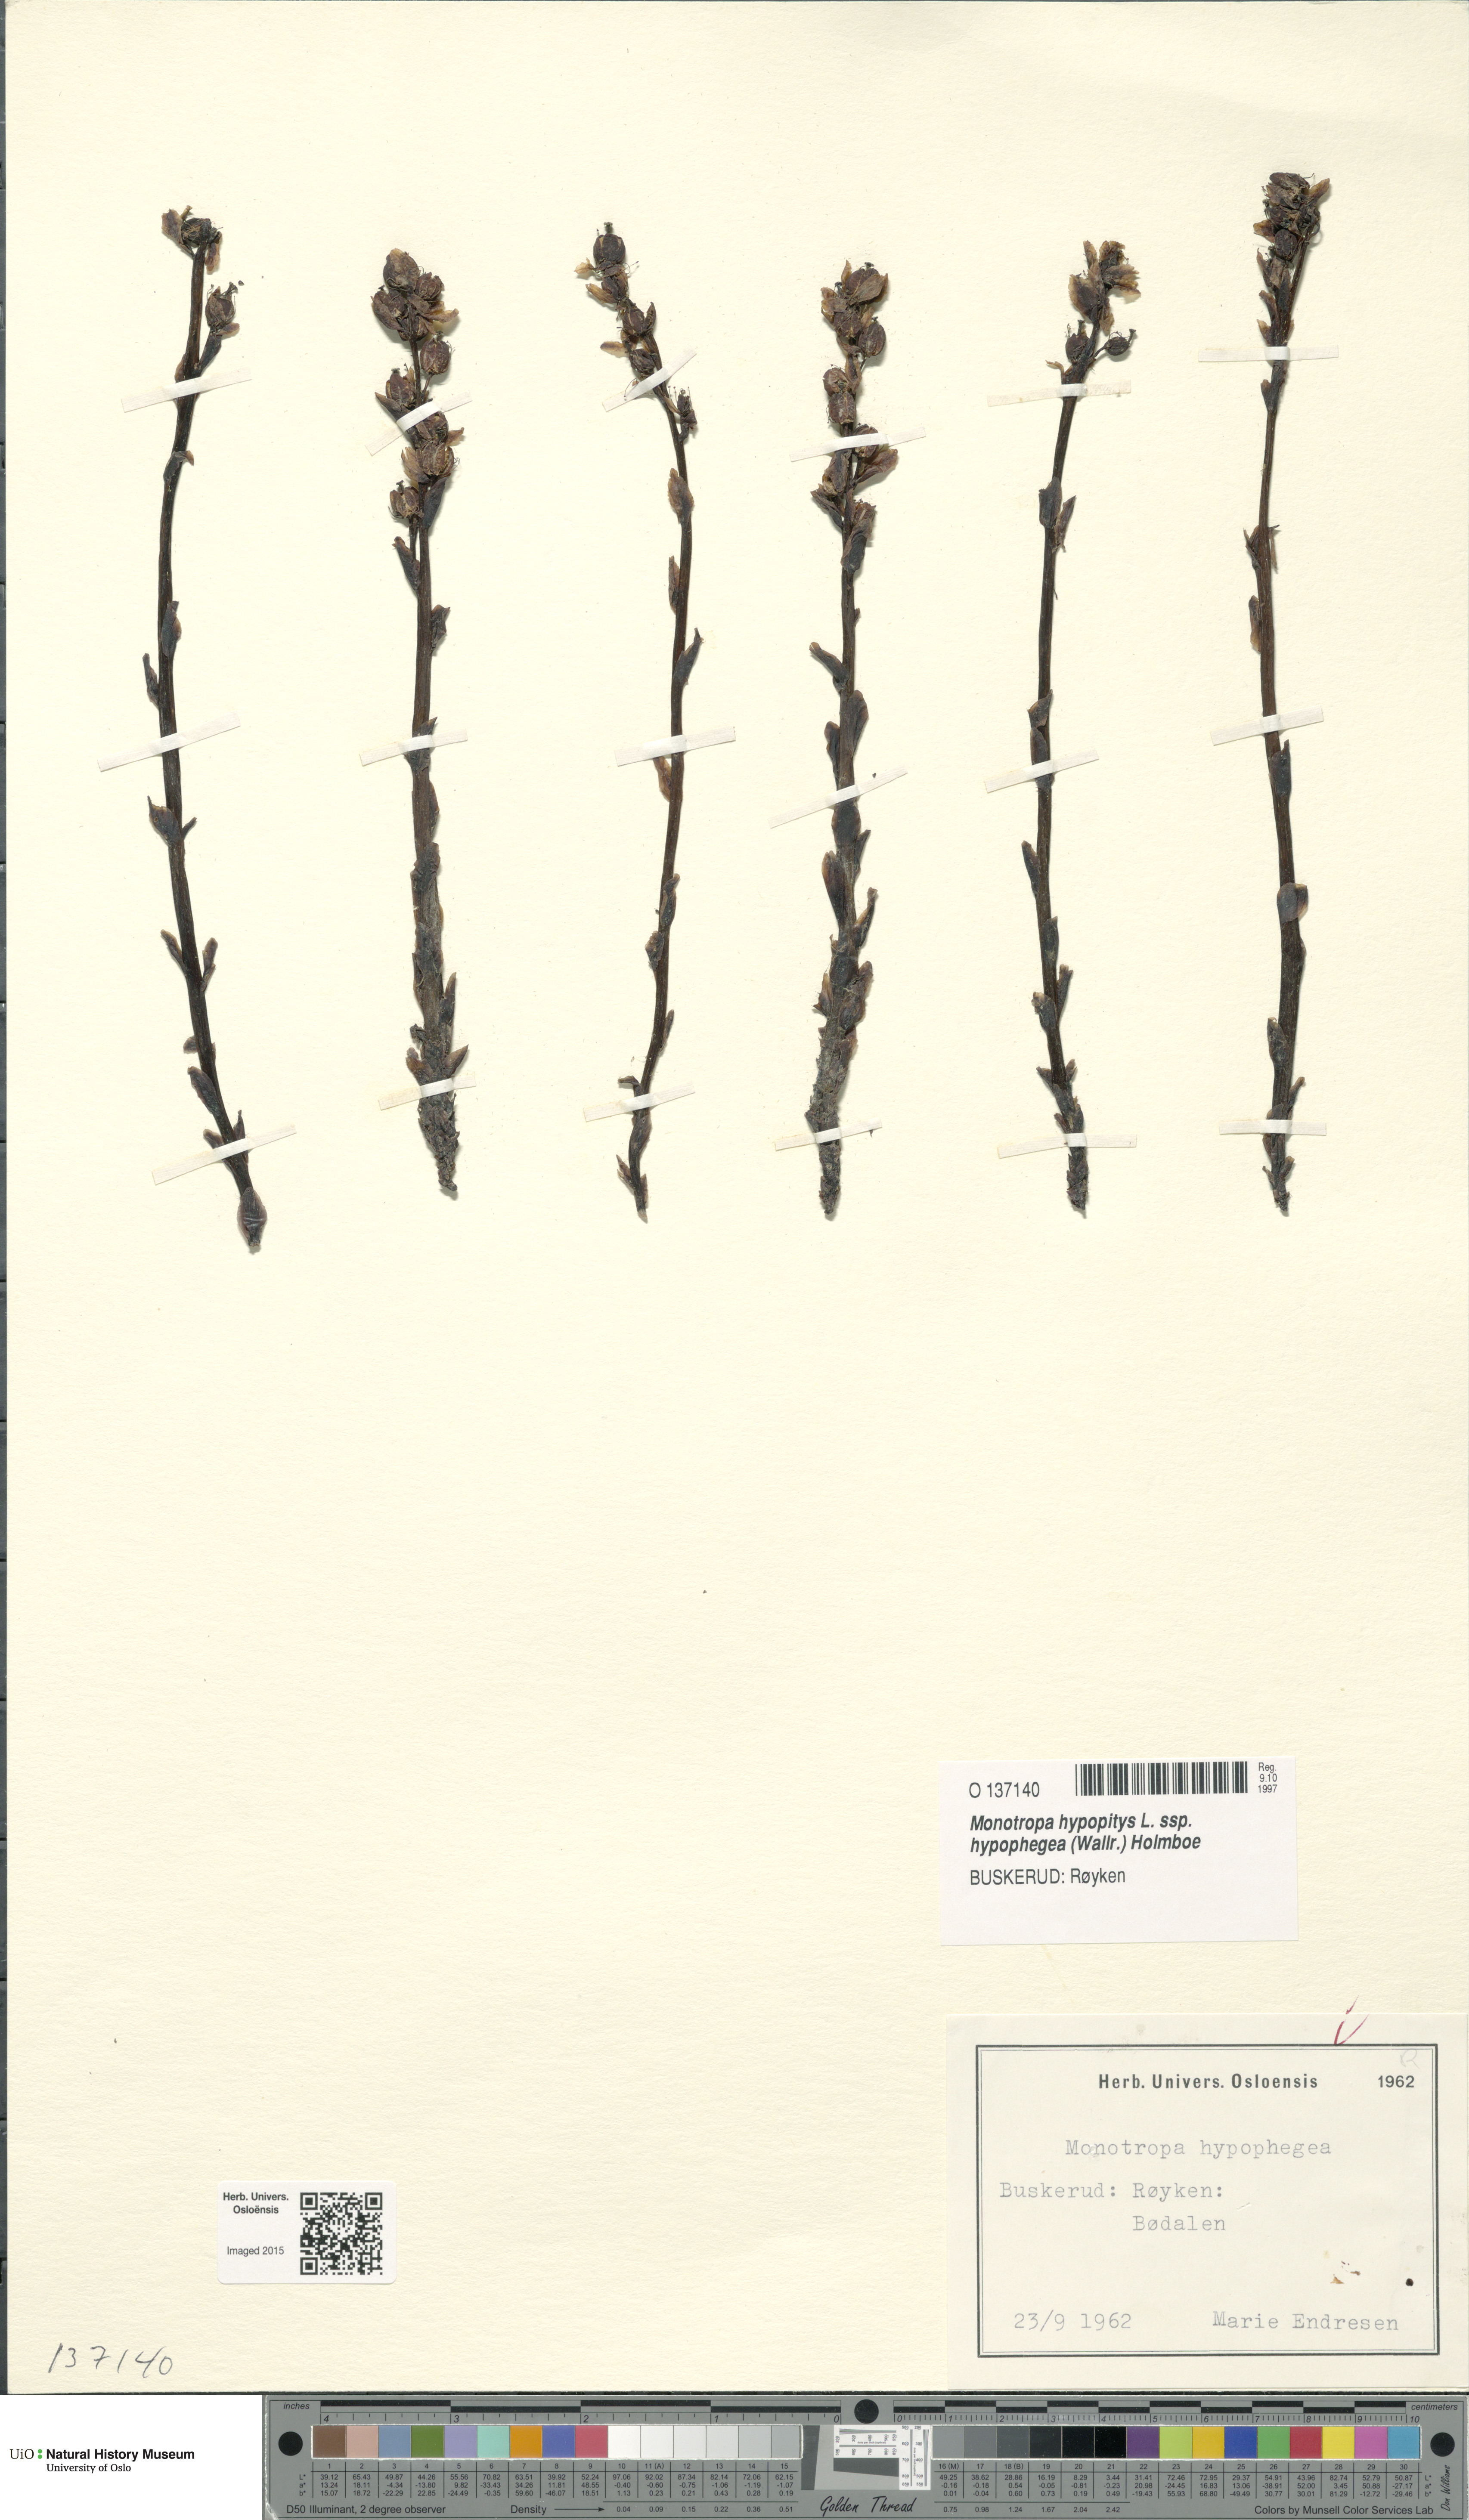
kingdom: Plantae
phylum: Tracheophyta
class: Magnoliopsida
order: Ericales
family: Ericaceae
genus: Hypopitys
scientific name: Hypopitys hypophegea
